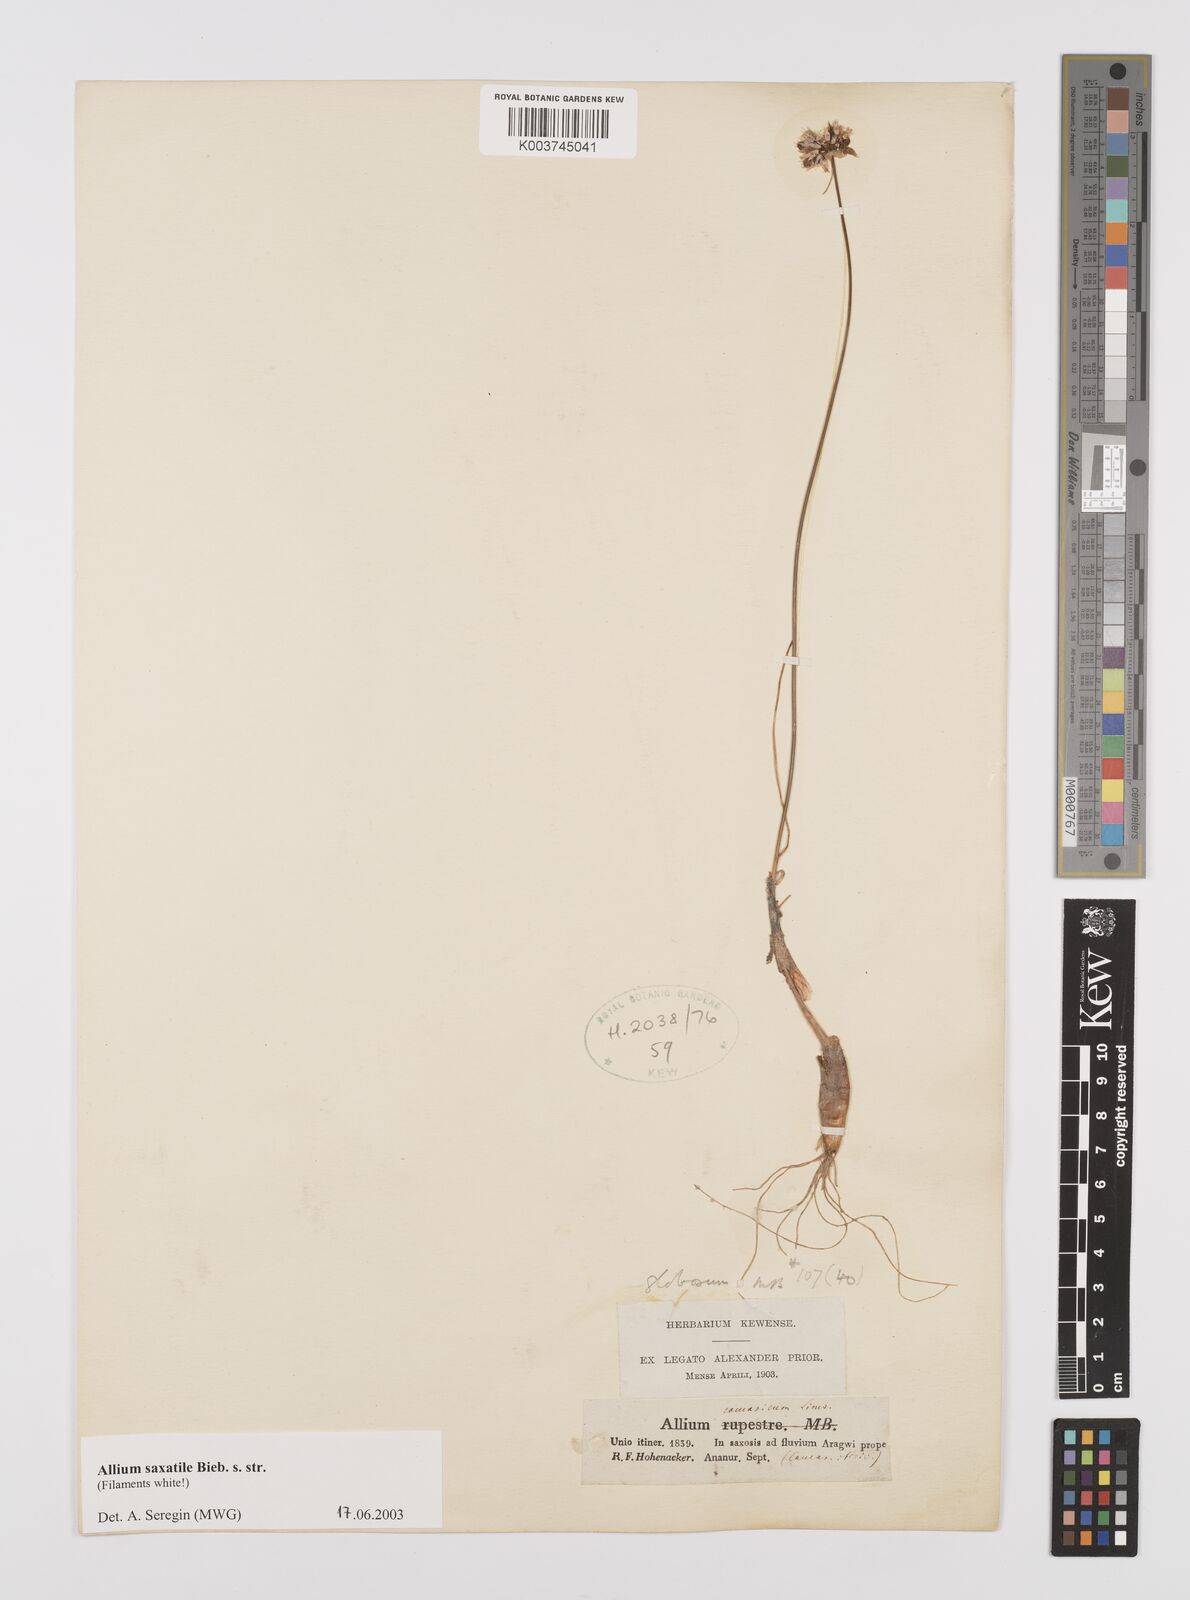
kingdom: Plantae
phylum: Tracheophyta
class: Liliopsida
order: Asparagales
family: Amaryllidaceae
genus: Allium
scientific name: Allium saxatile
